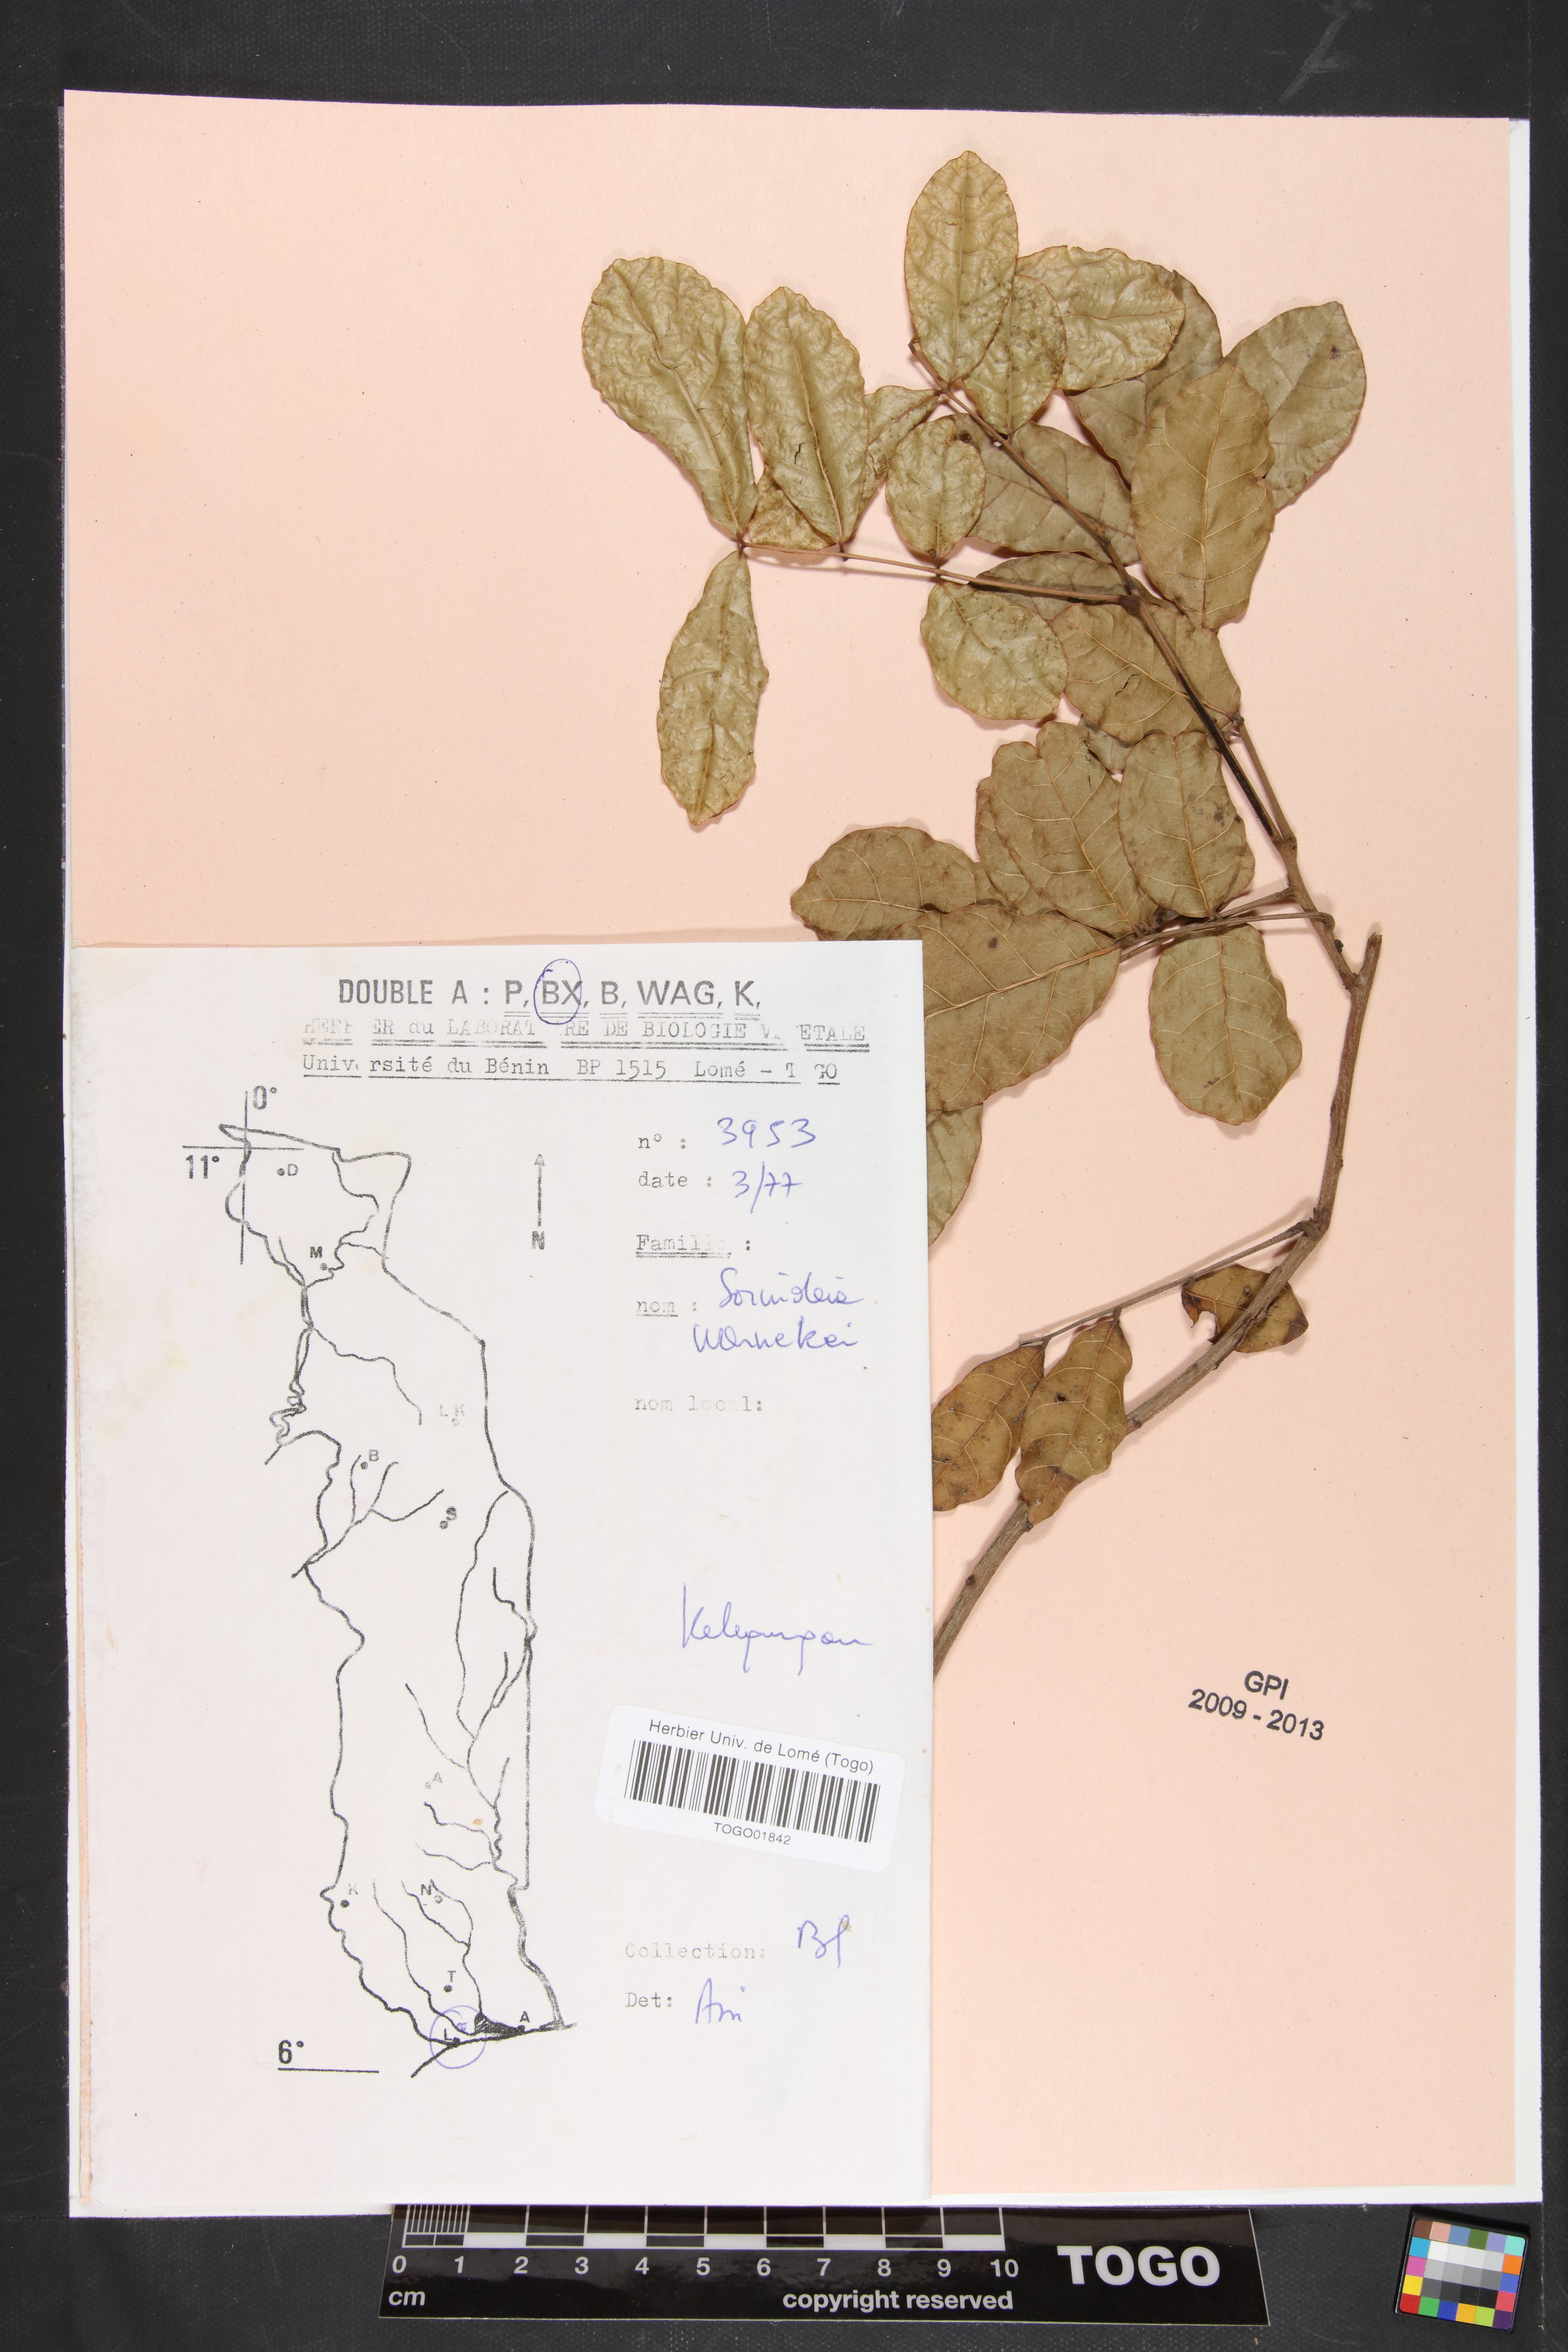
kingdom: Plantae
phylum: Tracheophyta
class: Magnoliopsida
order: Sapindales
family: Anacardiaceae
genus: Sorindeia
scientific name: Sorindeia grandifolia
